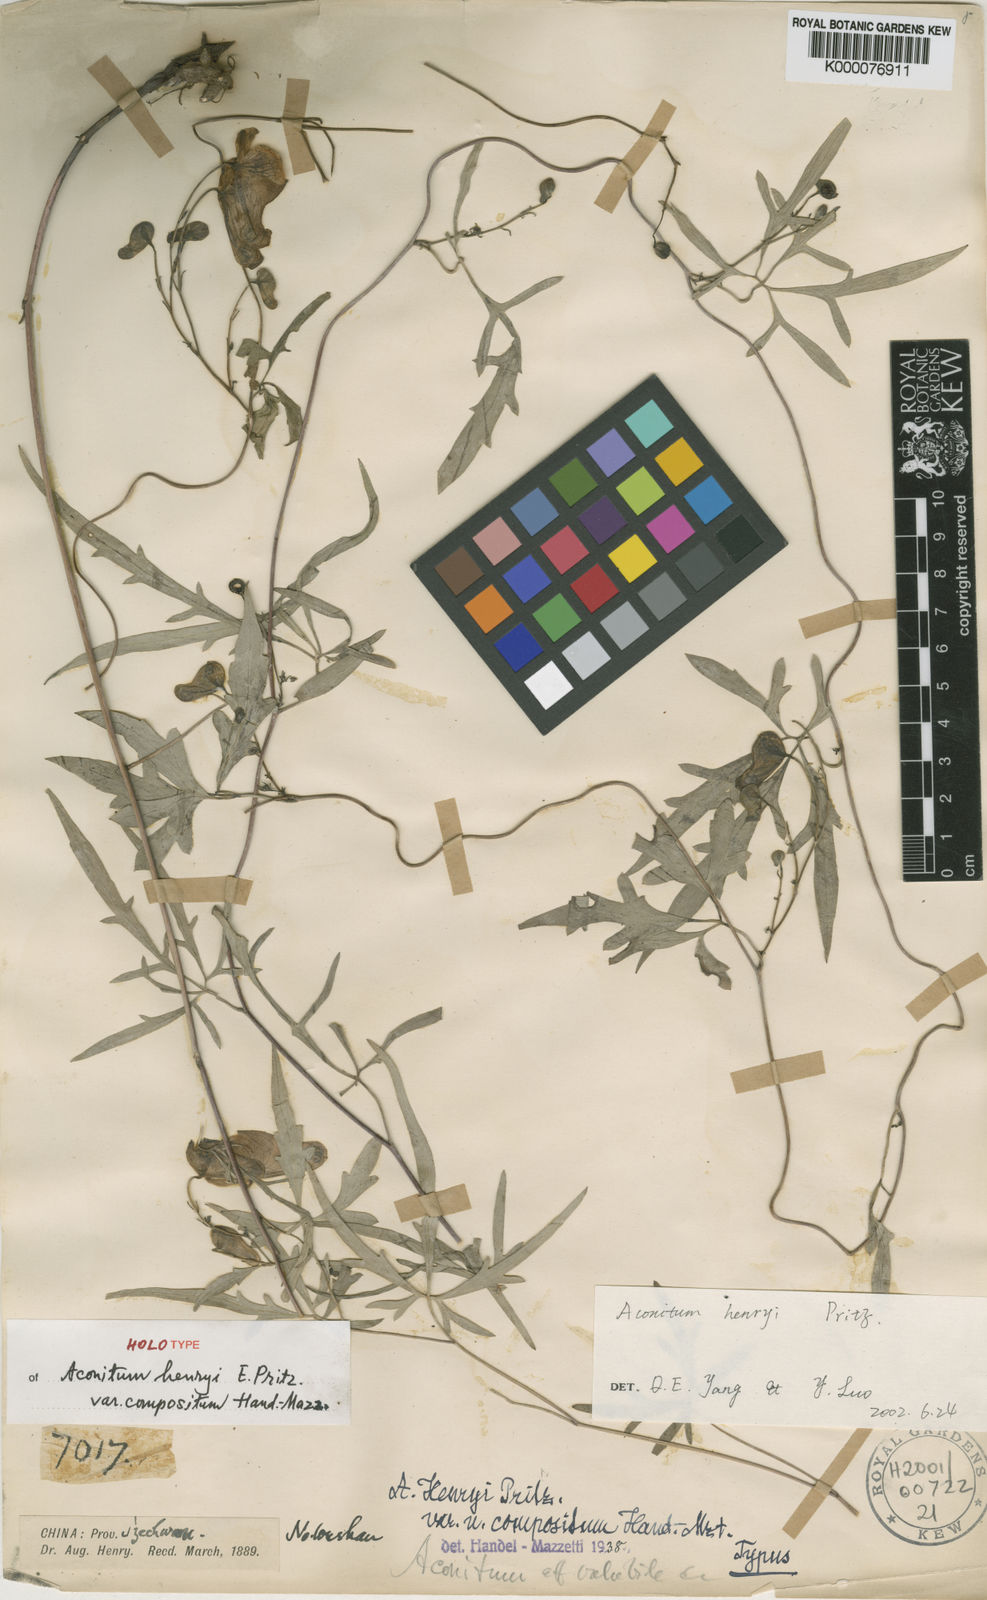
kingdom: Plantae
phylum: Tracheophyta
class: Magnoliopsida
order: Ranunculales
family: Ranunculaceae
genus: Aconitum
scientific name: Aconitum volubile
